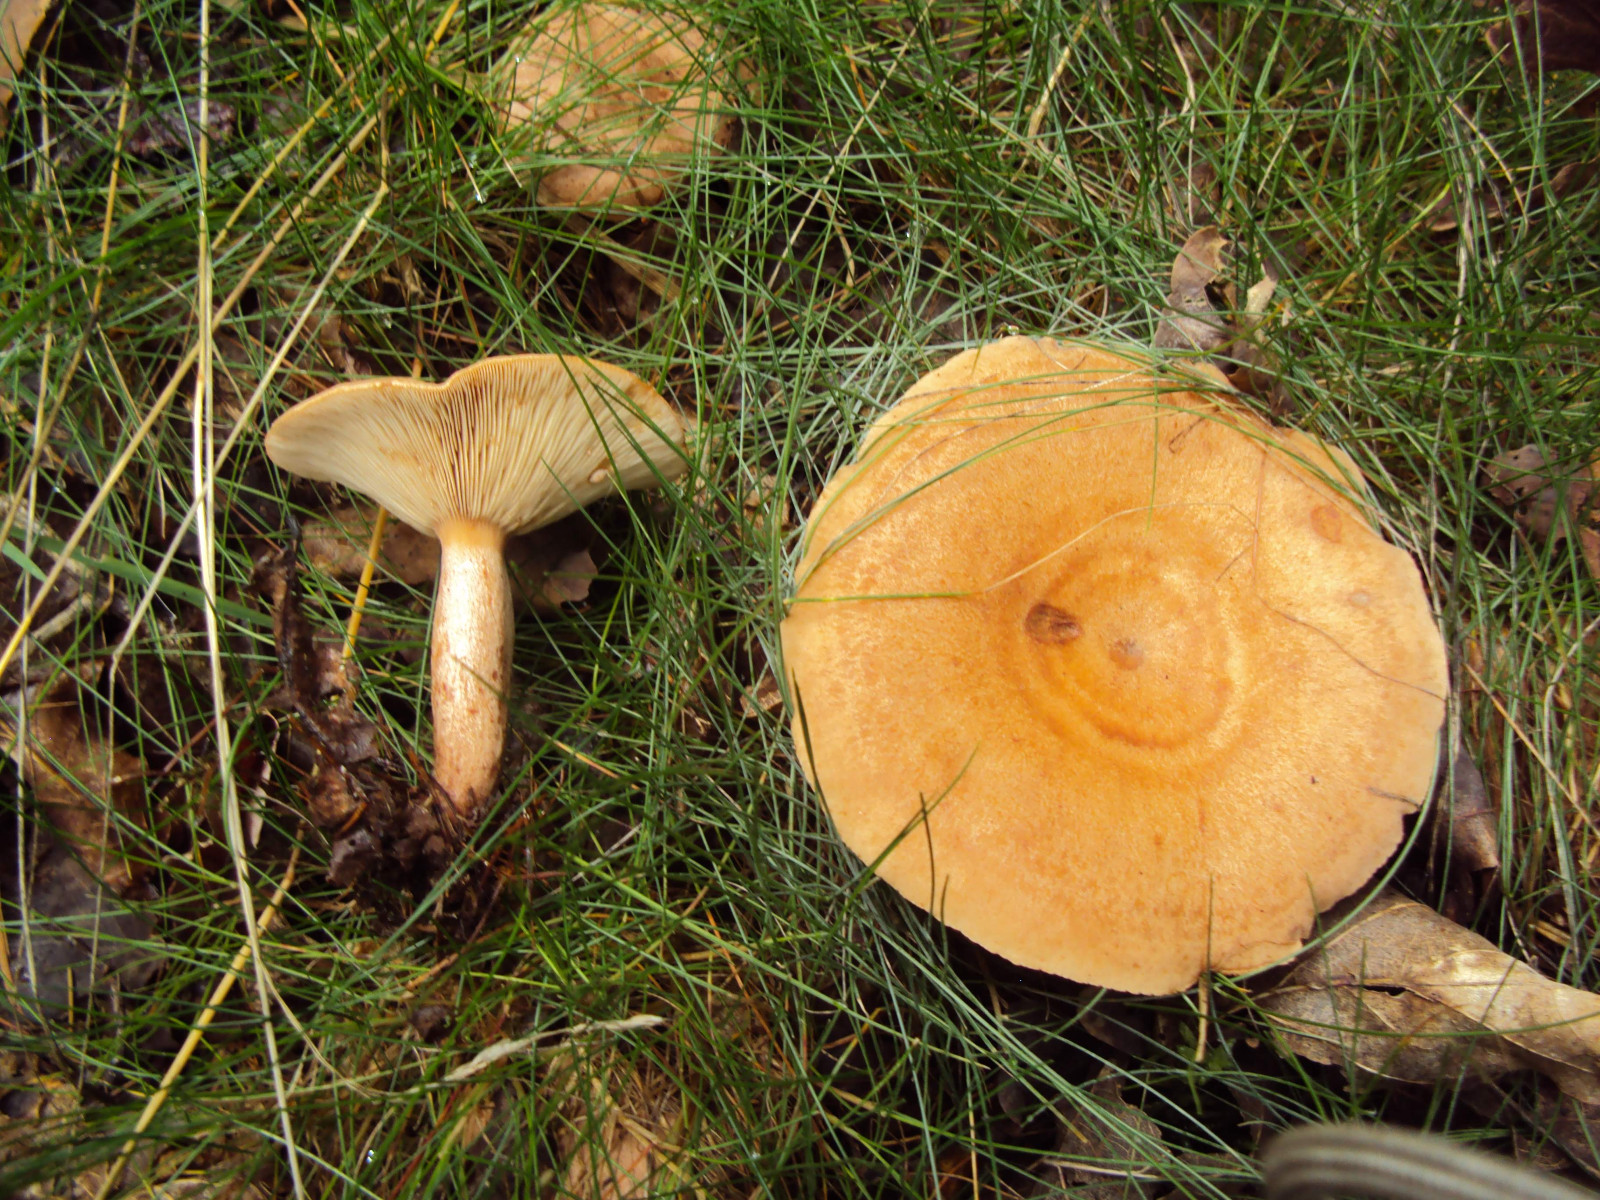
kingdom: Fungi
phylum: Basidiomycota
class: Agaricomycetes
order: Russulales
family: Russulaceae
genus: Lactarius
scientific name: Lactarius quietus
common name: ege-mælkehat
